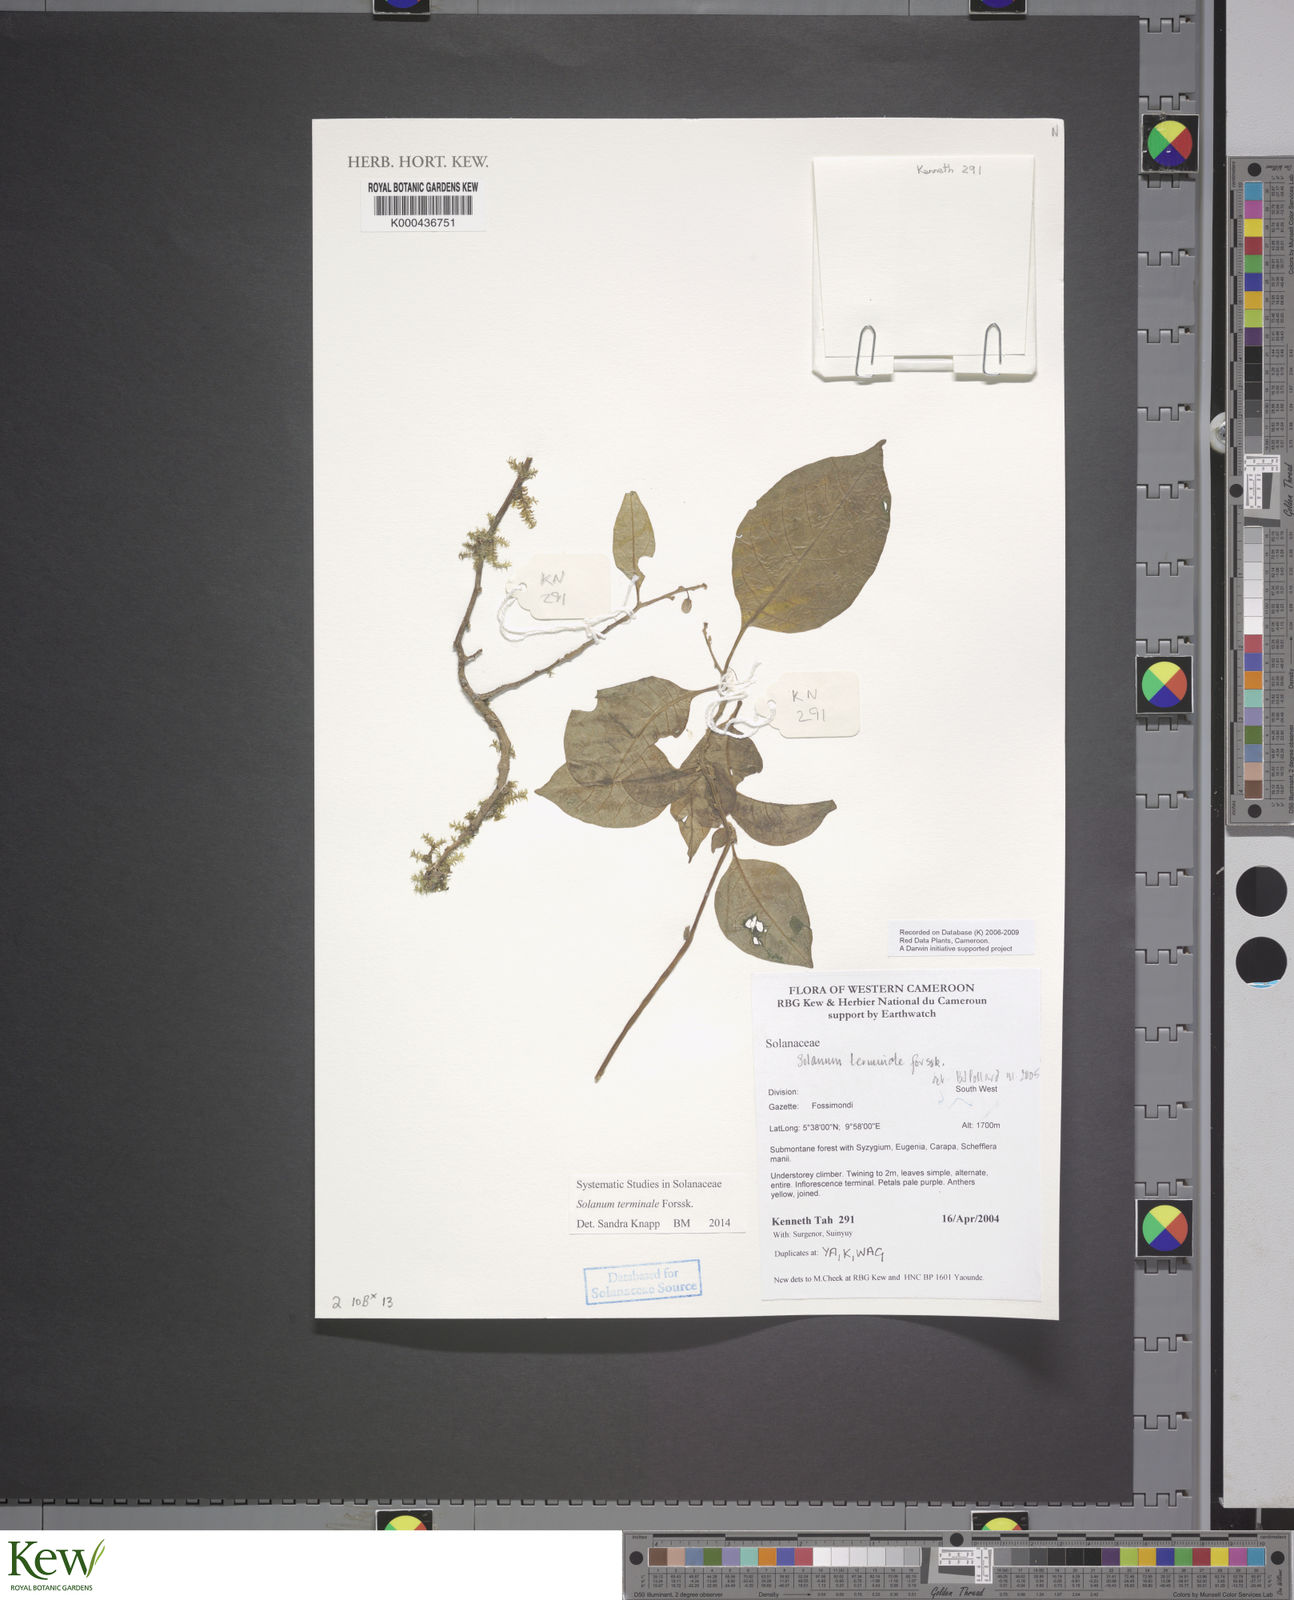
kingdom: Plantae
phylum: Tracheophyta
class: Magnoliopsida
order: Solanales
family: Solanaceae
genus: Solanum
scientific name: Solanum terminale
